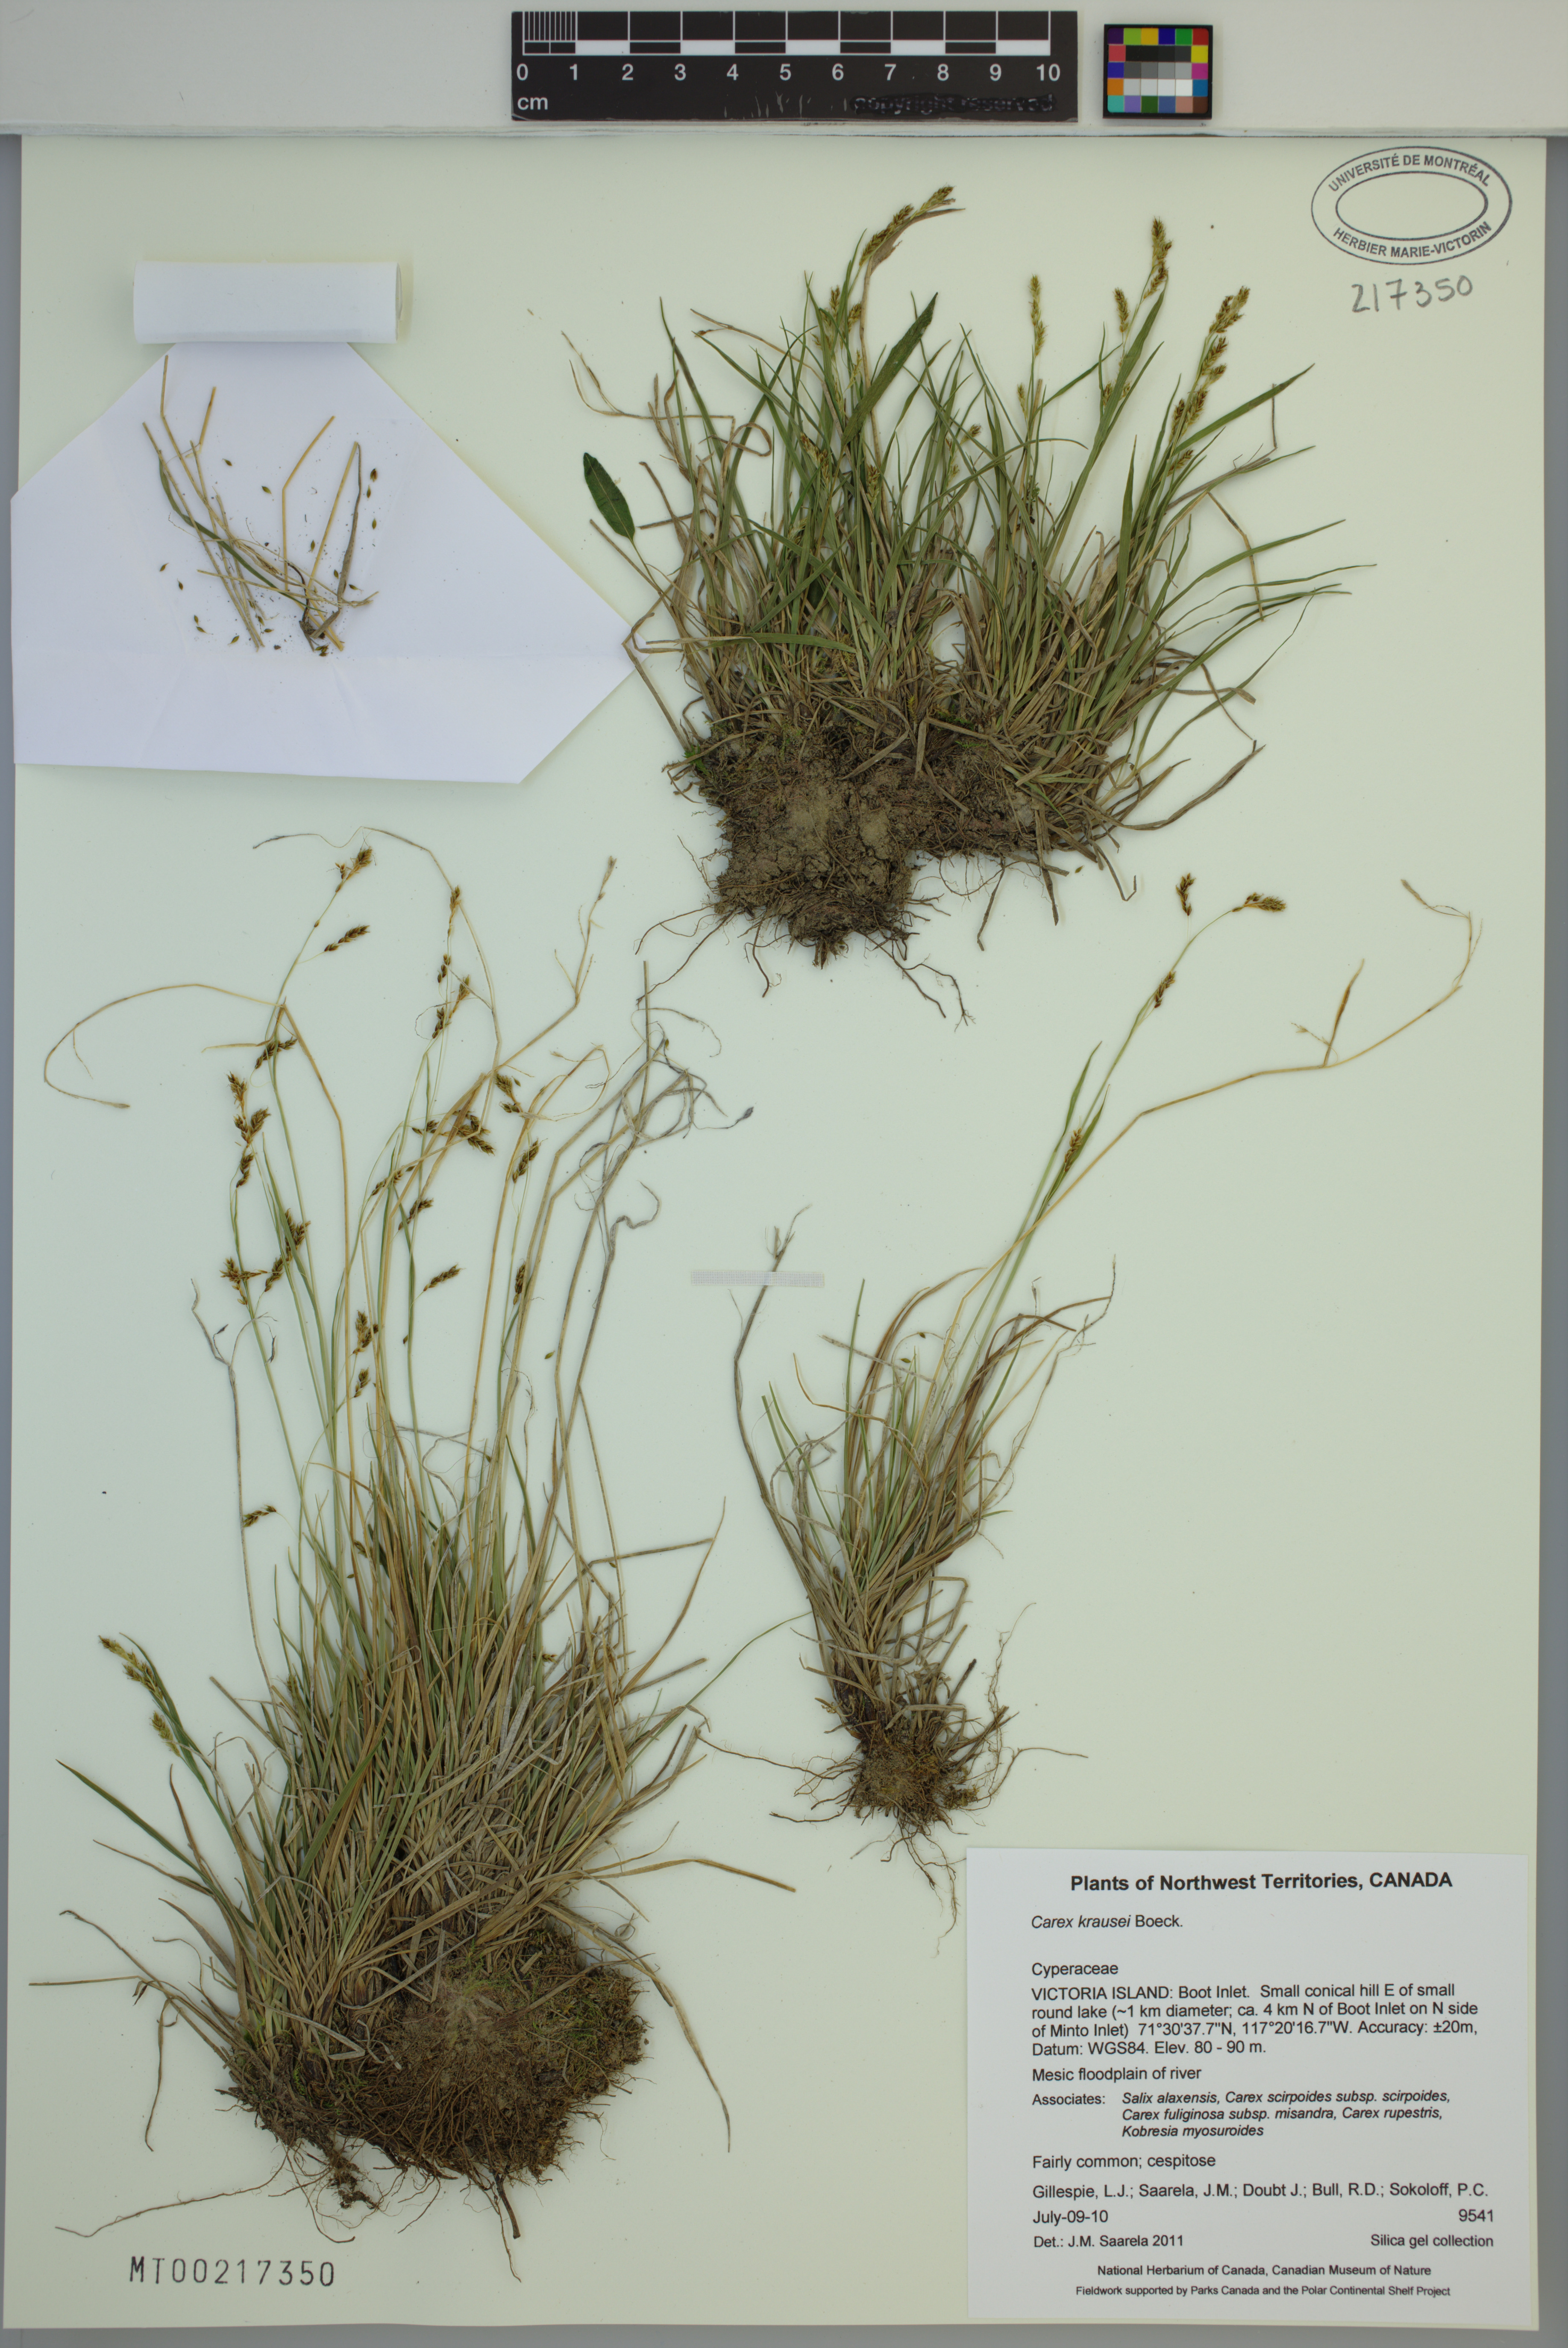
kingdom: Plantae
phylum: Tracheophyta
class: Liliopsida
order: Poales
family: Cyperaceae
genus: Carex
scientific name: Carex krausei
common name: Krause's sedge
